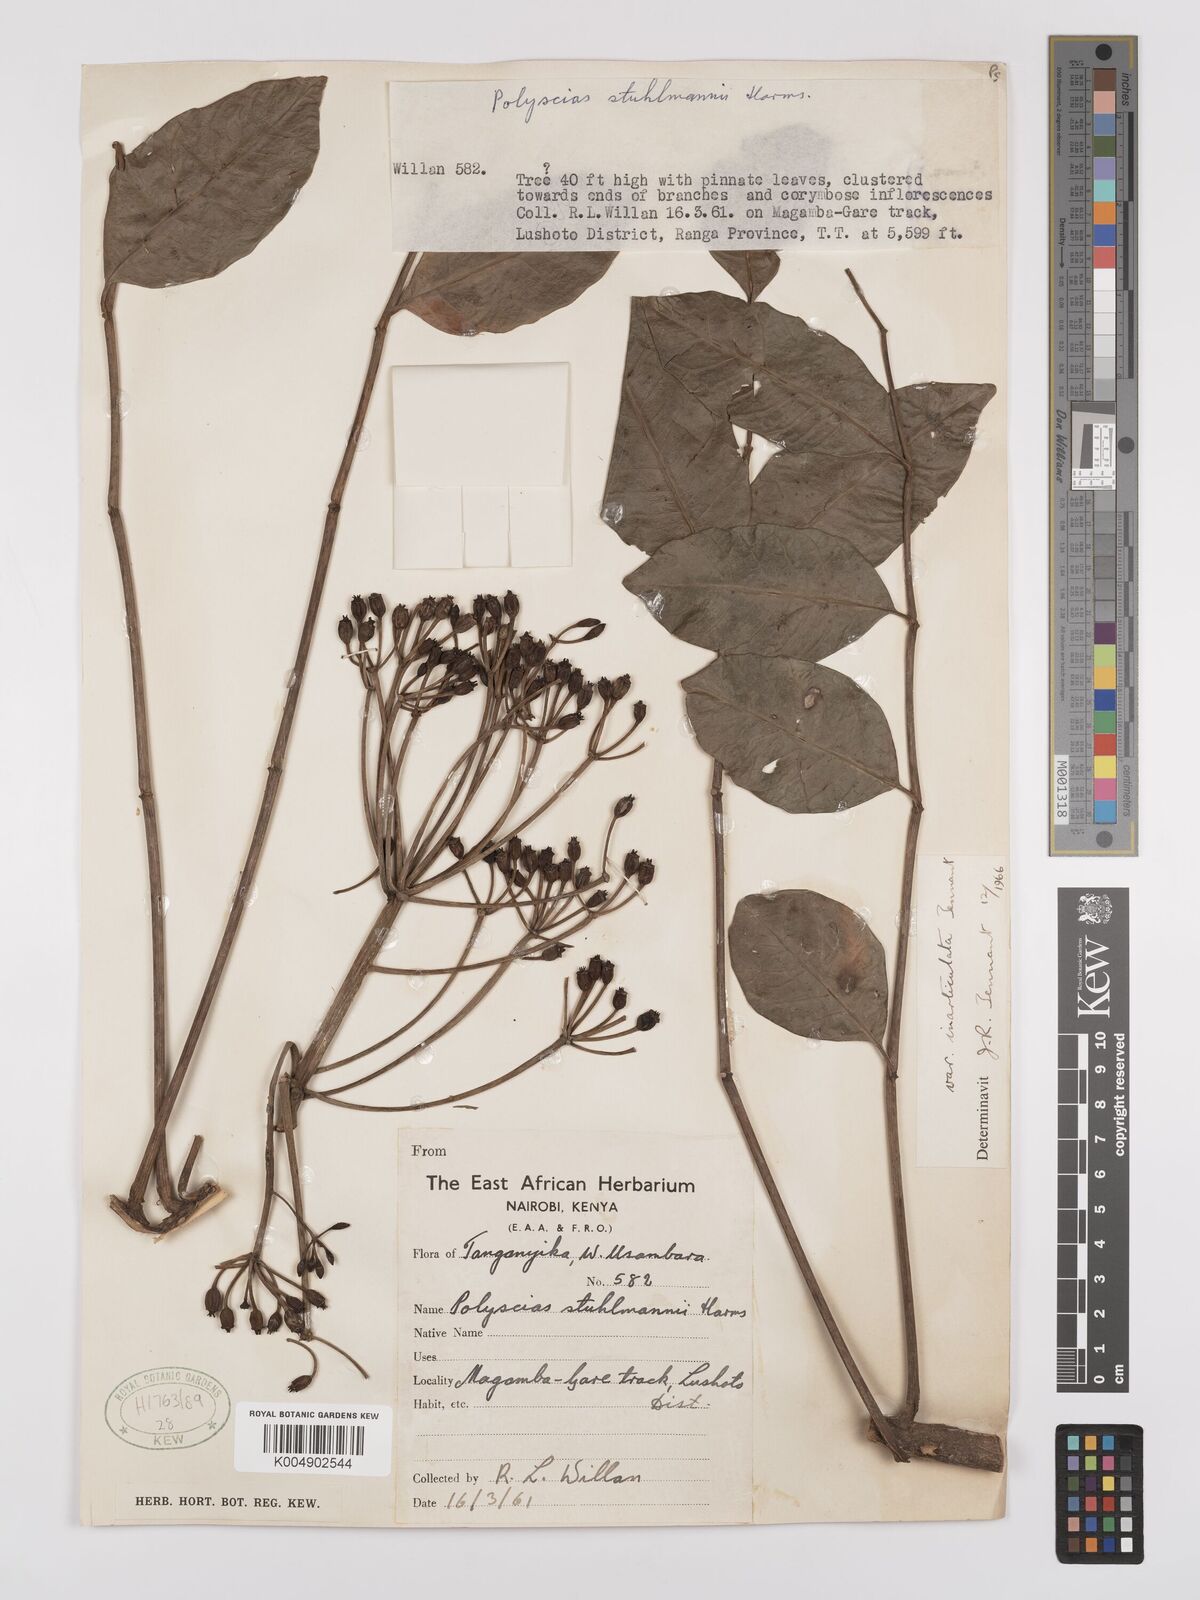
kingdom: Plantae
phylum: Tracheophyta
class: Magnoliopsida
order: Apiales
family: Araliaceae
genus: Polyscias
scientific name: Polyscias stuhlmannii
